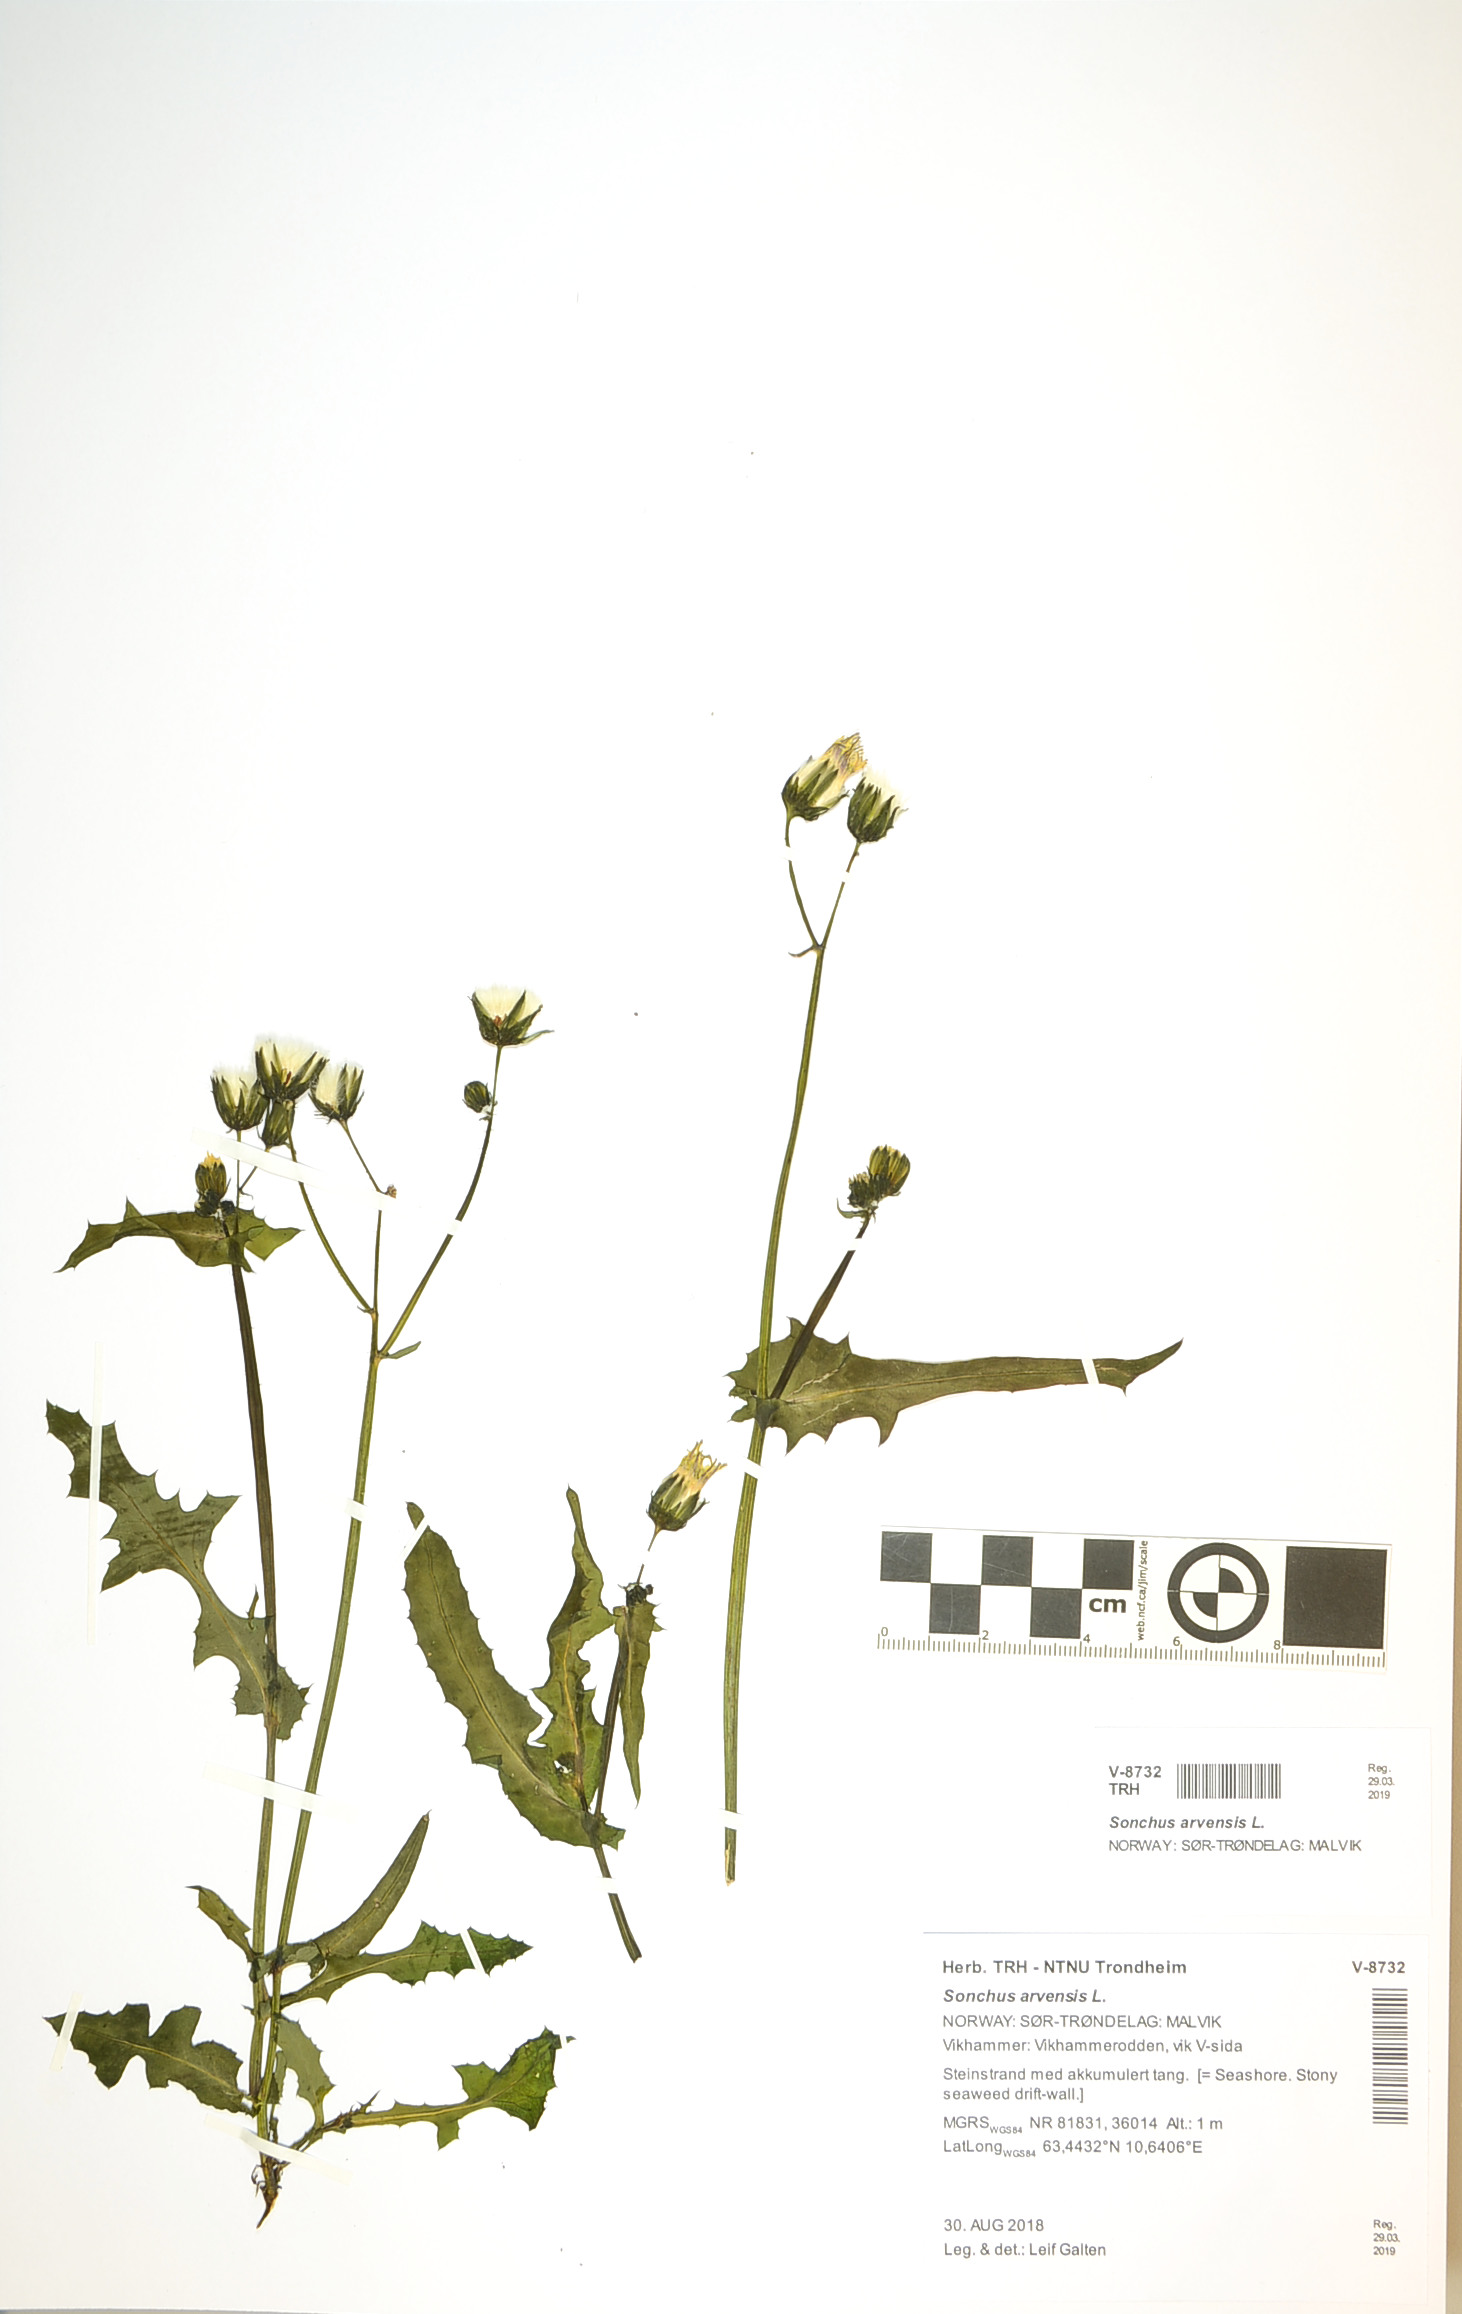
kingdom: Plantae
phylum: Tracheophyta
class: Magnoliopsida
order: Asterales
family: Asteraceae
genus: Sonchus
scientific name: Sonchus arvensis
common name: Perennial sow-thistle
